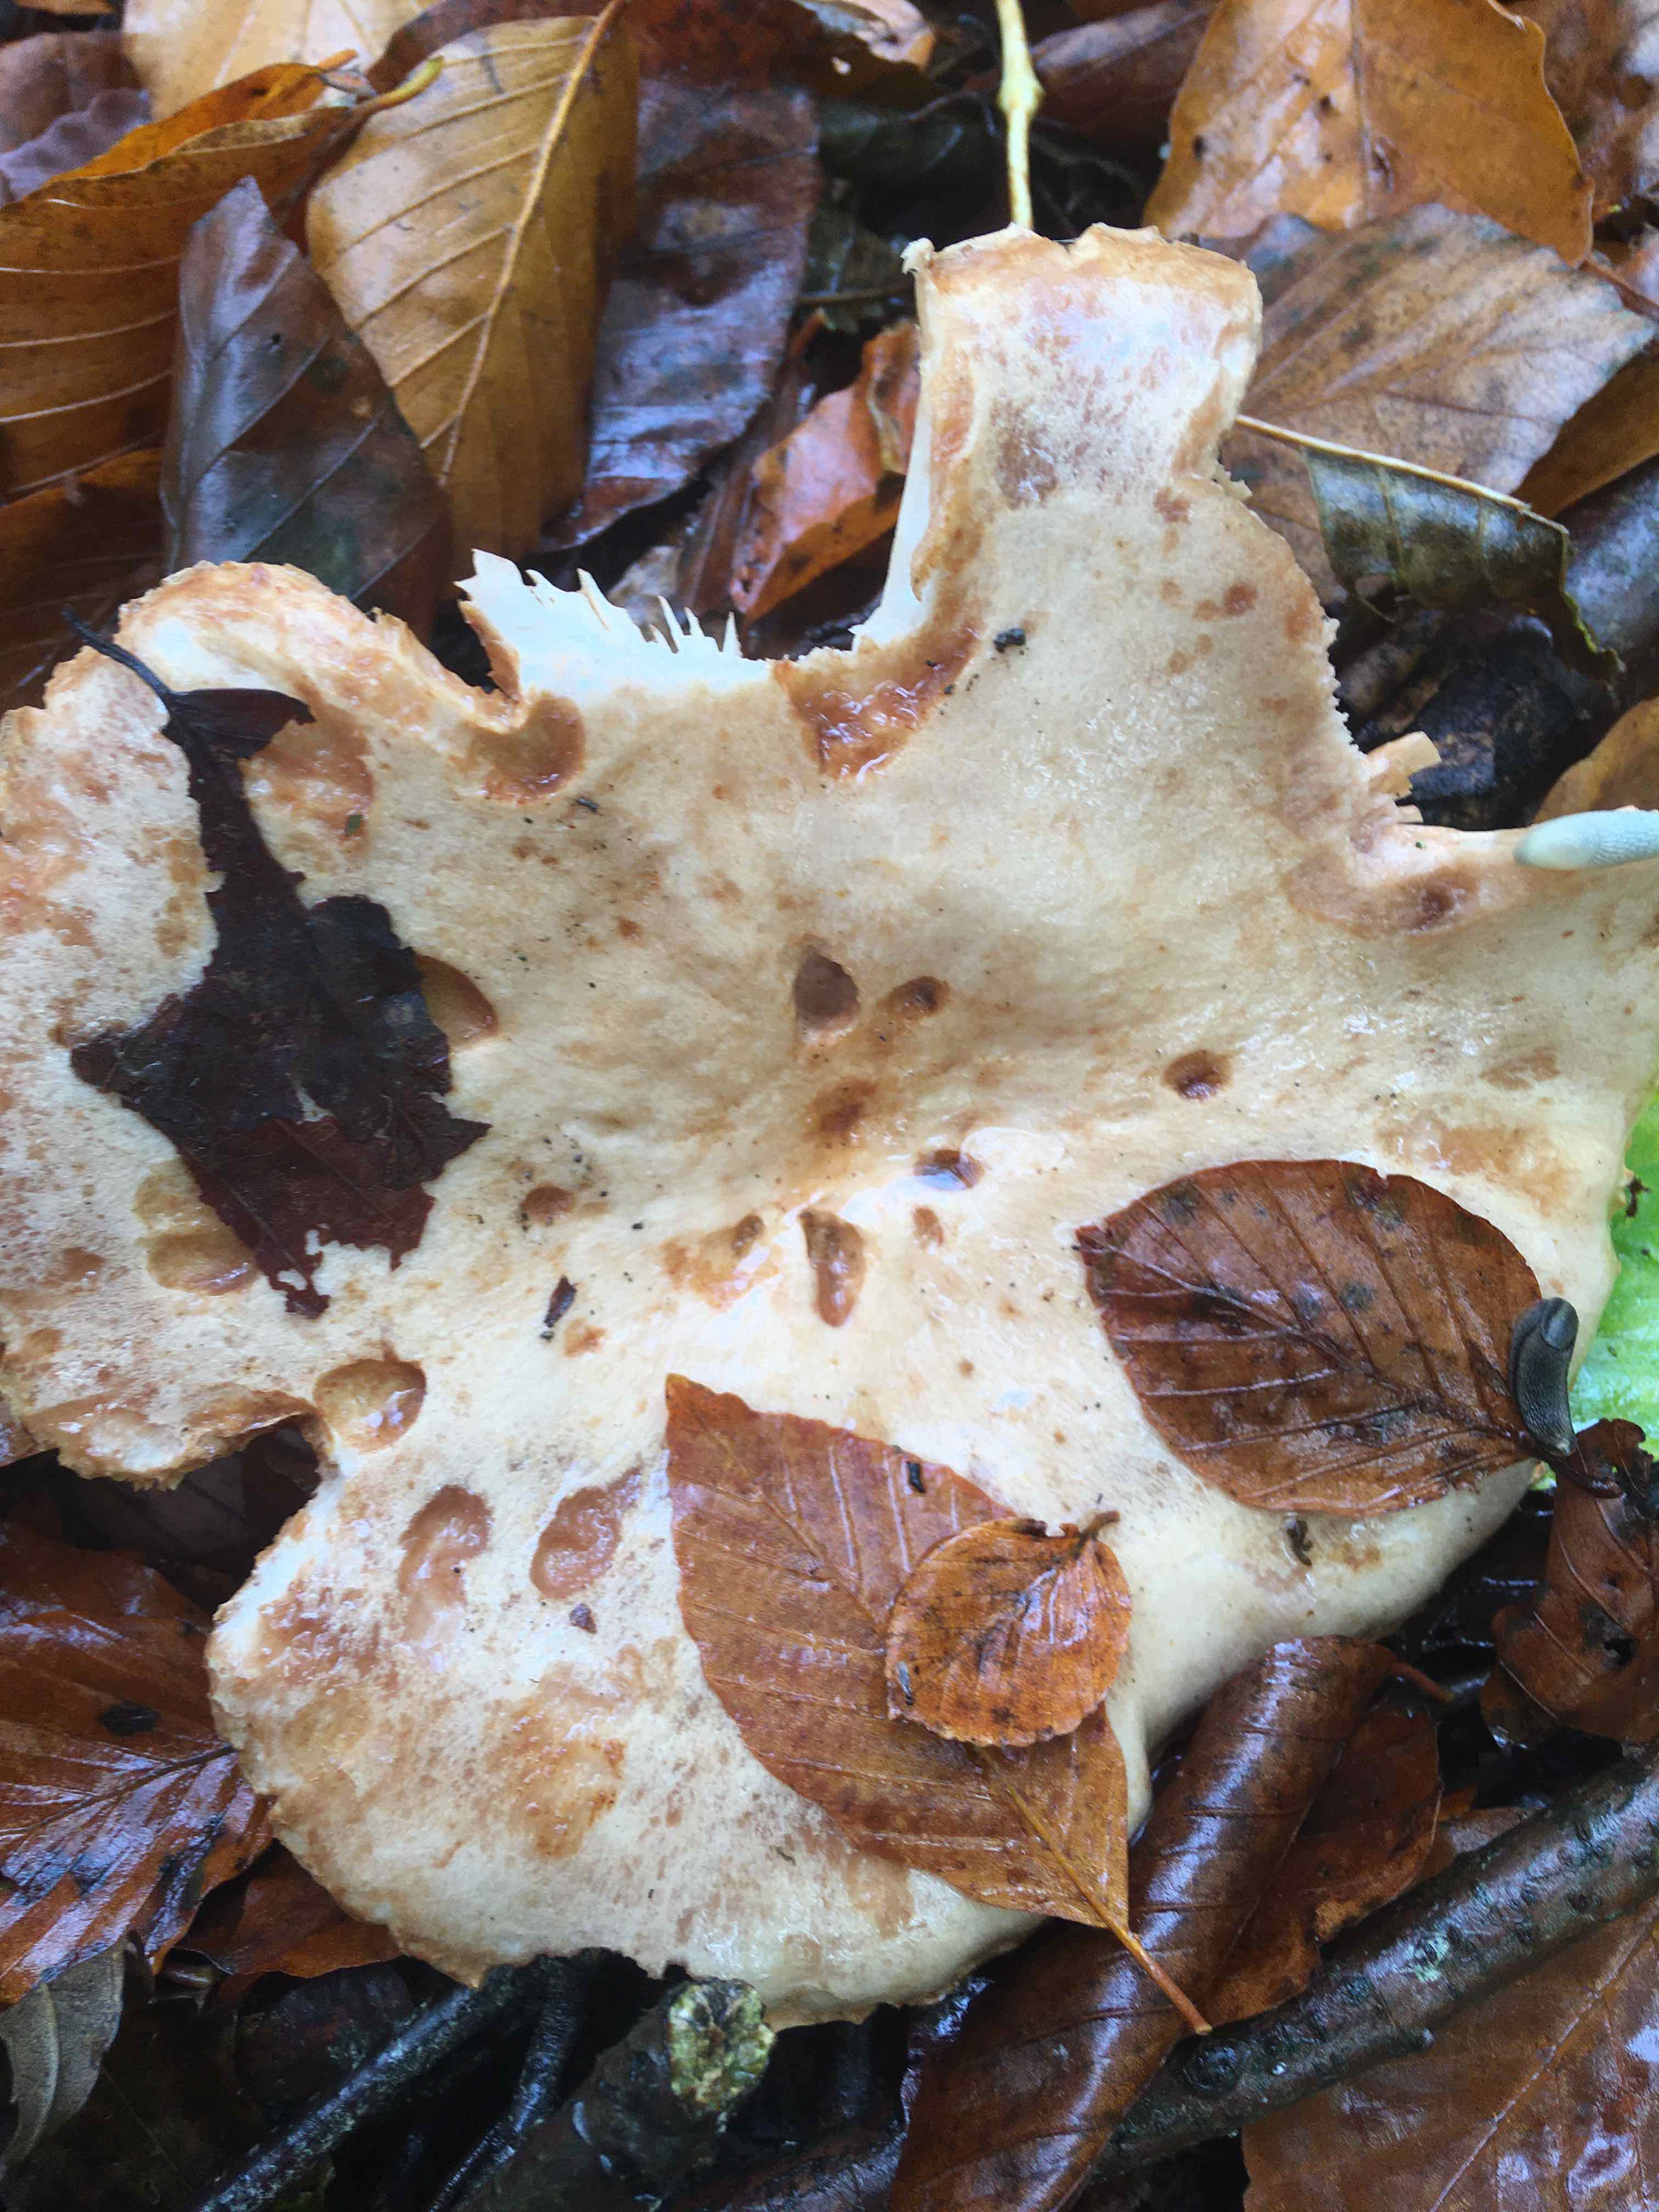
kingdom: Fungi
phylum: Basidiomycota
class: Agaricomycetes
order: Russulales
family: Russulaceae
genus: Lactarius
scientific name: Lactarius pallidus
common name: bleg mælkehat
